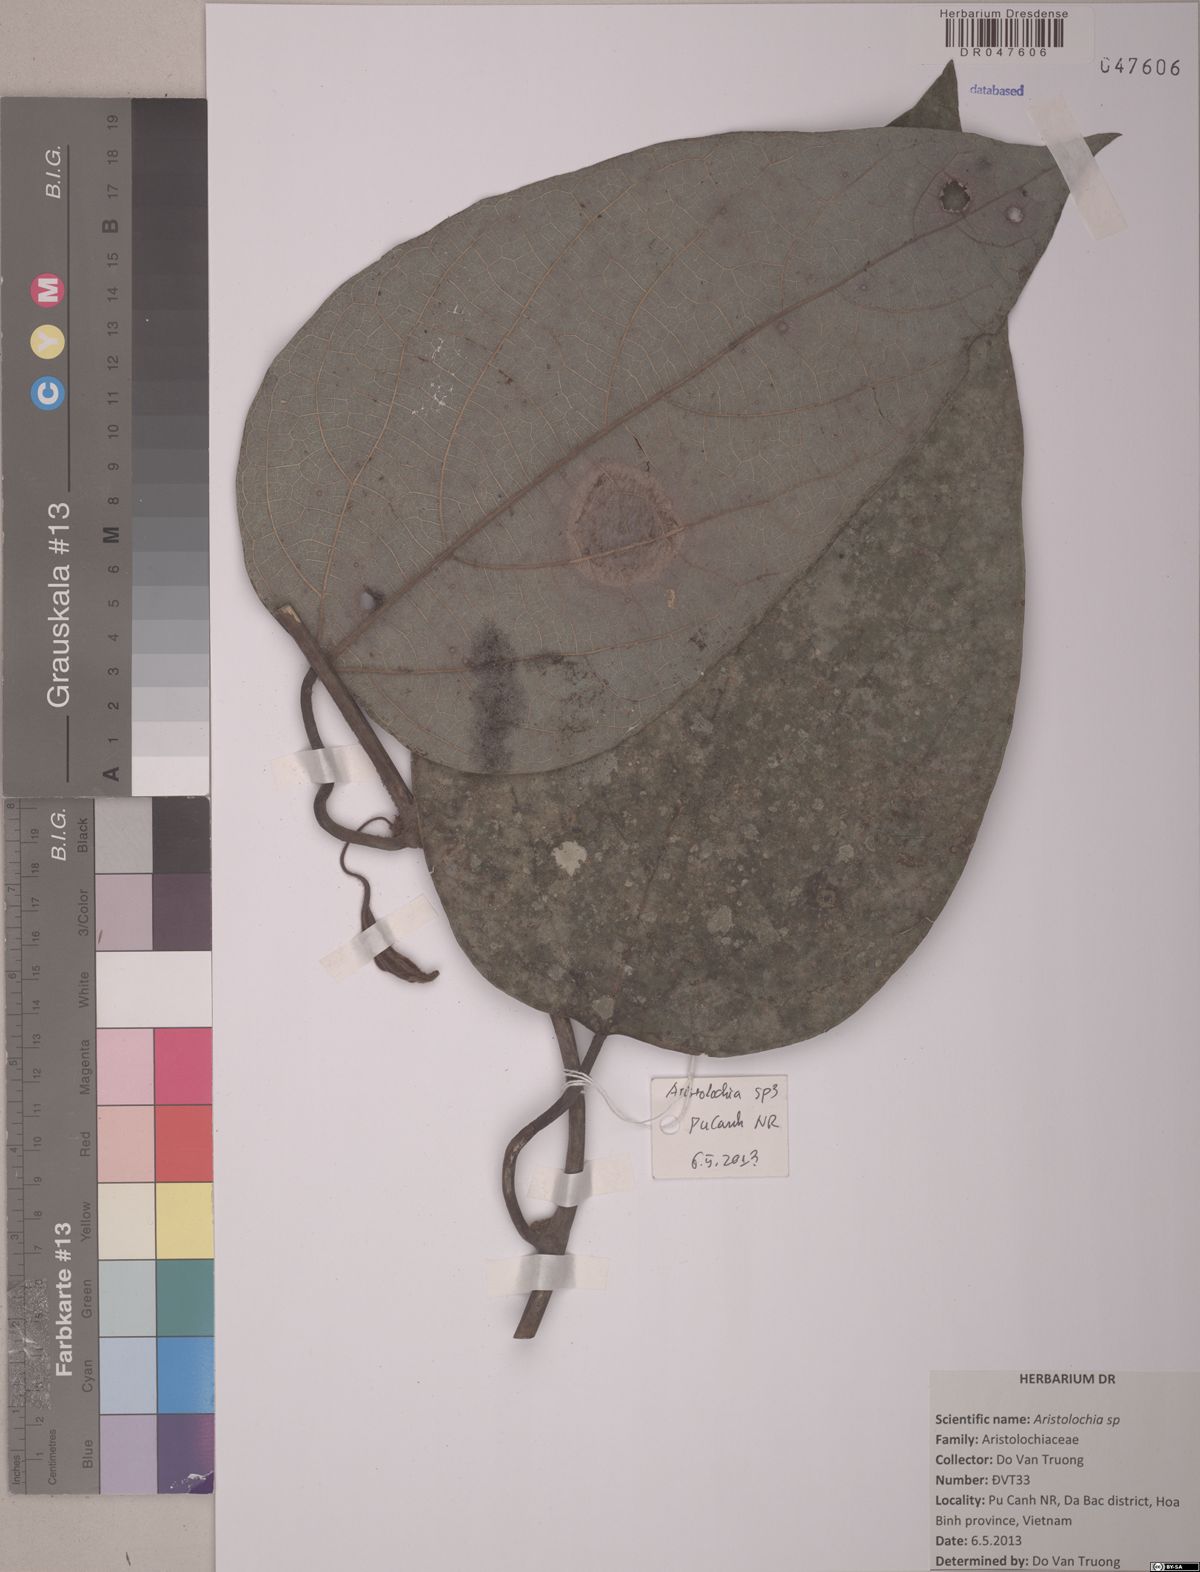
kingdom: Plantae
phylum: Tracheophyta
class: Magnoliopsida
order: Piperales
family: Aristolochiaceae
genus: Aristolochia
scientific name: Aristolochia
